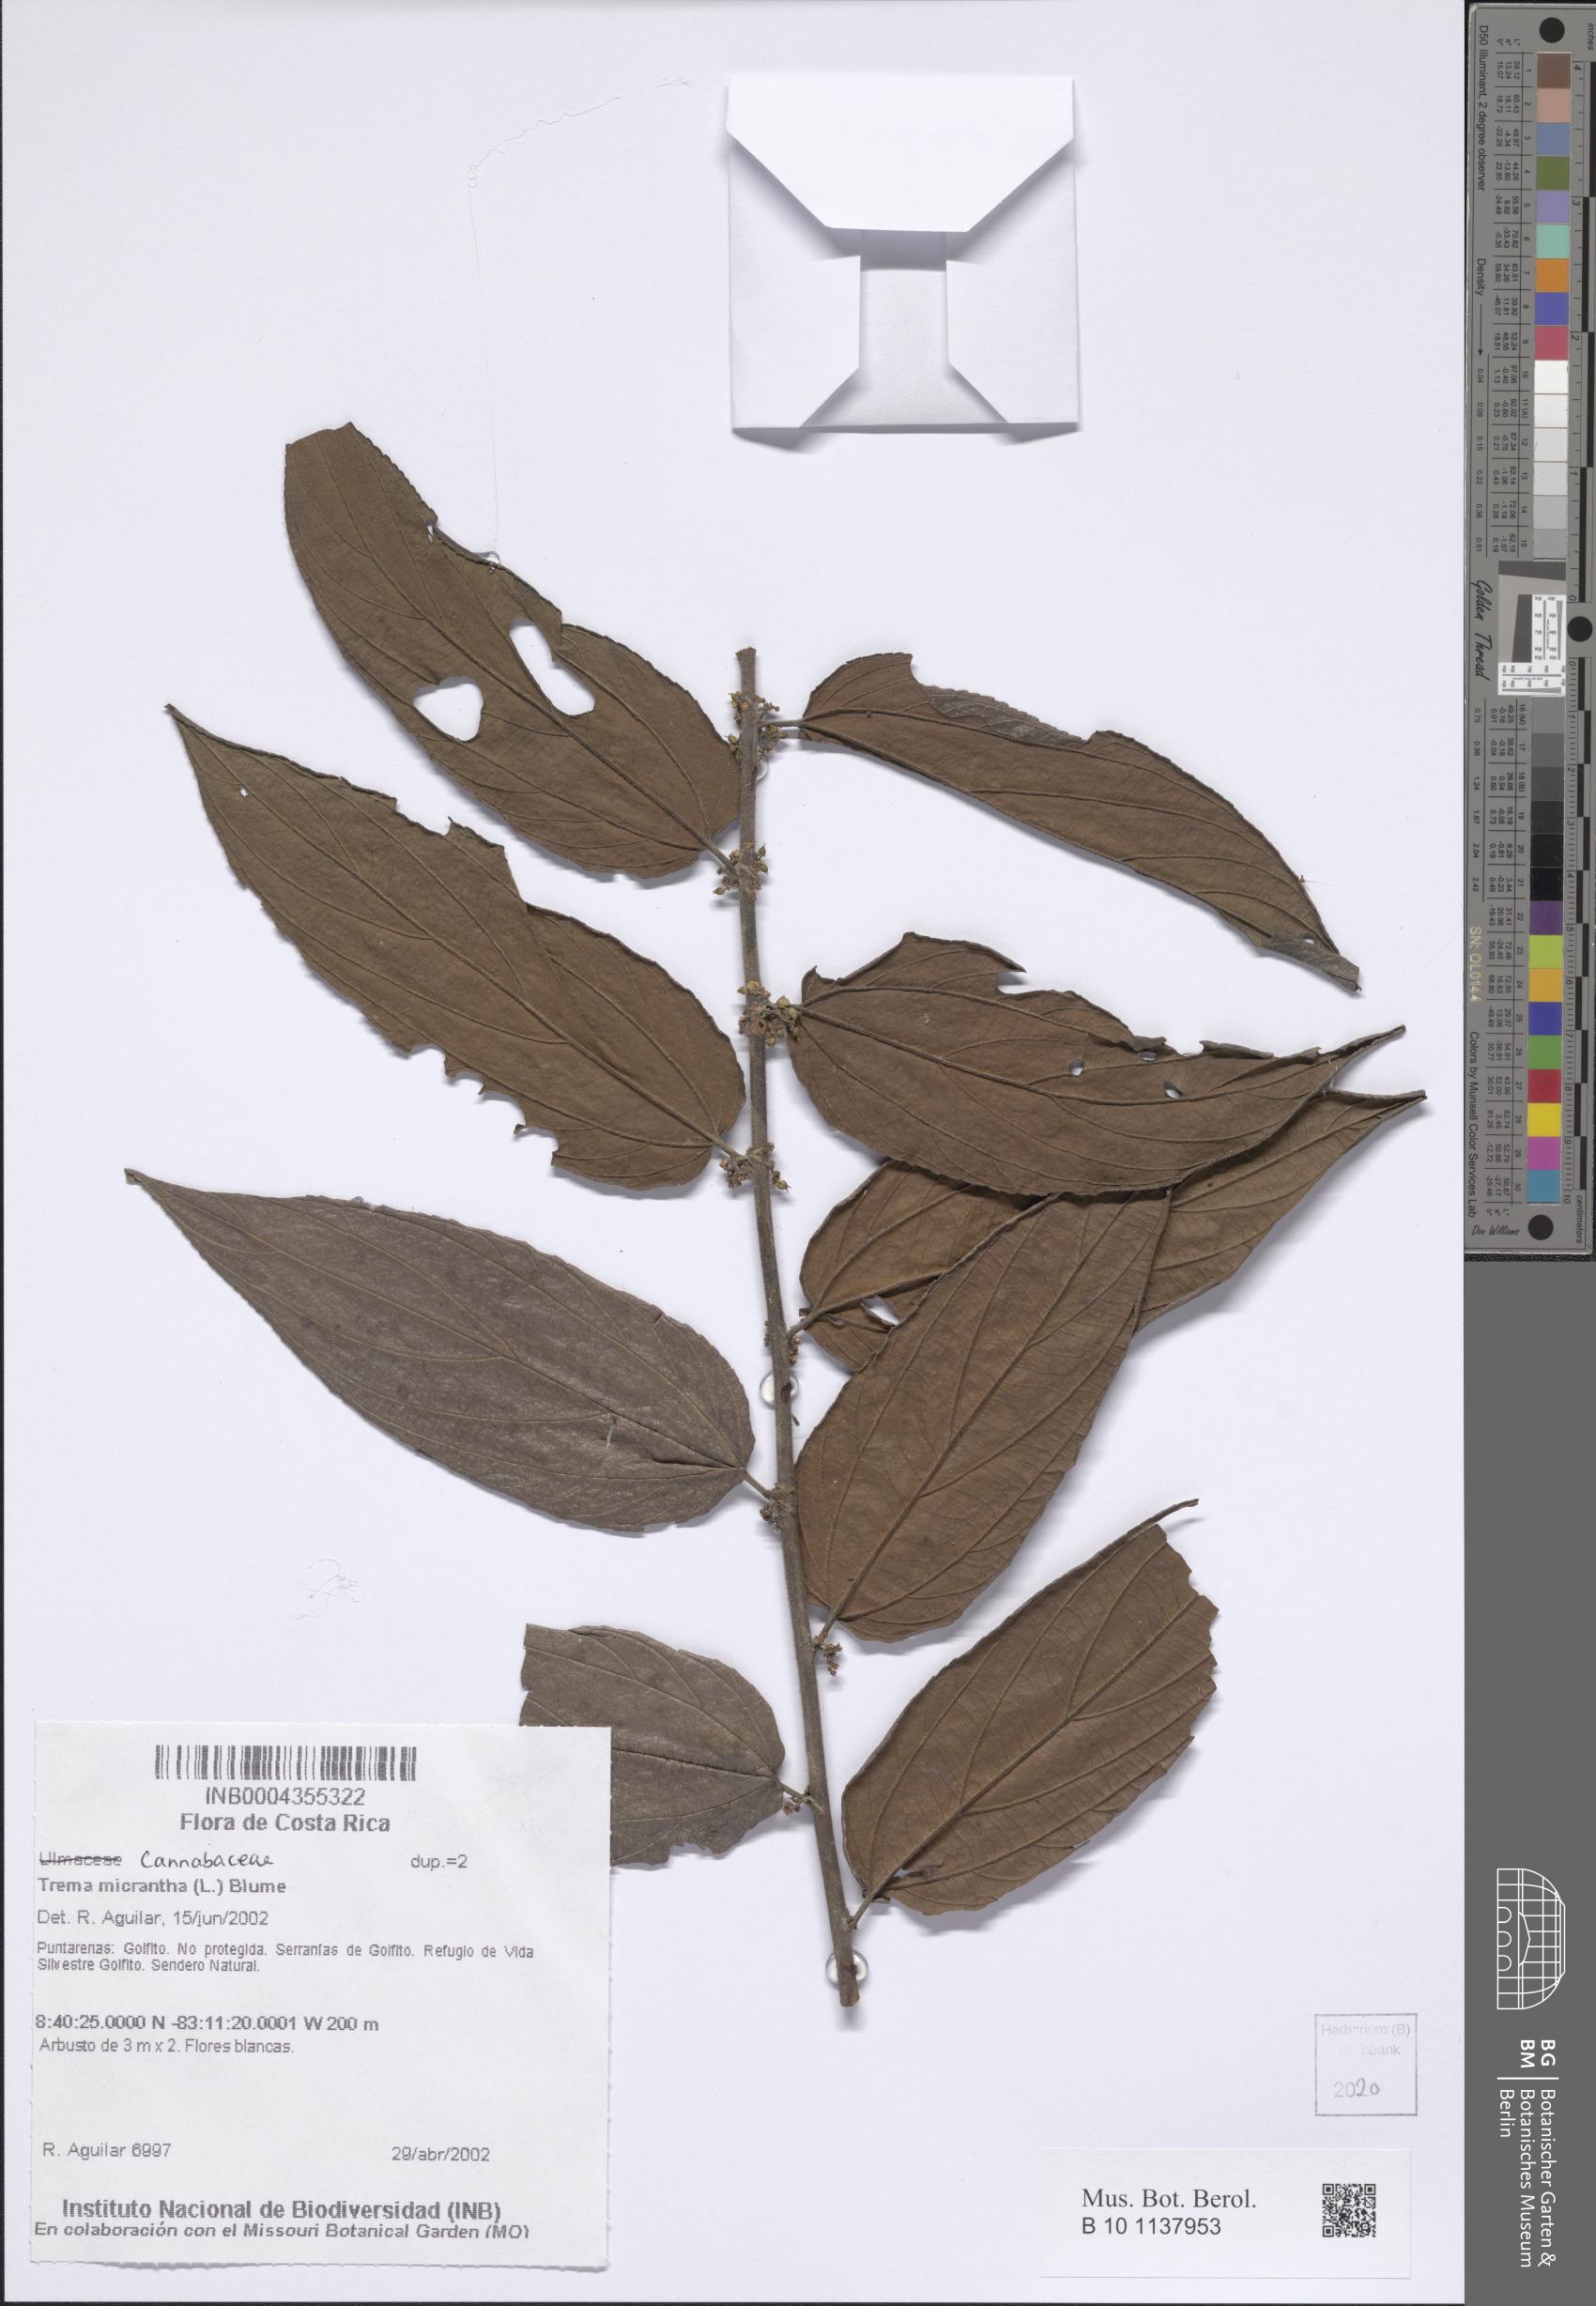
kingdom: Plantae
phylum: Tracheophyta
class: Magnoliopsida
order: Rosales
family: Cannabaceae
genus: Trema
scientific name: Trema micranthum
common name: Jamaican nettletree
